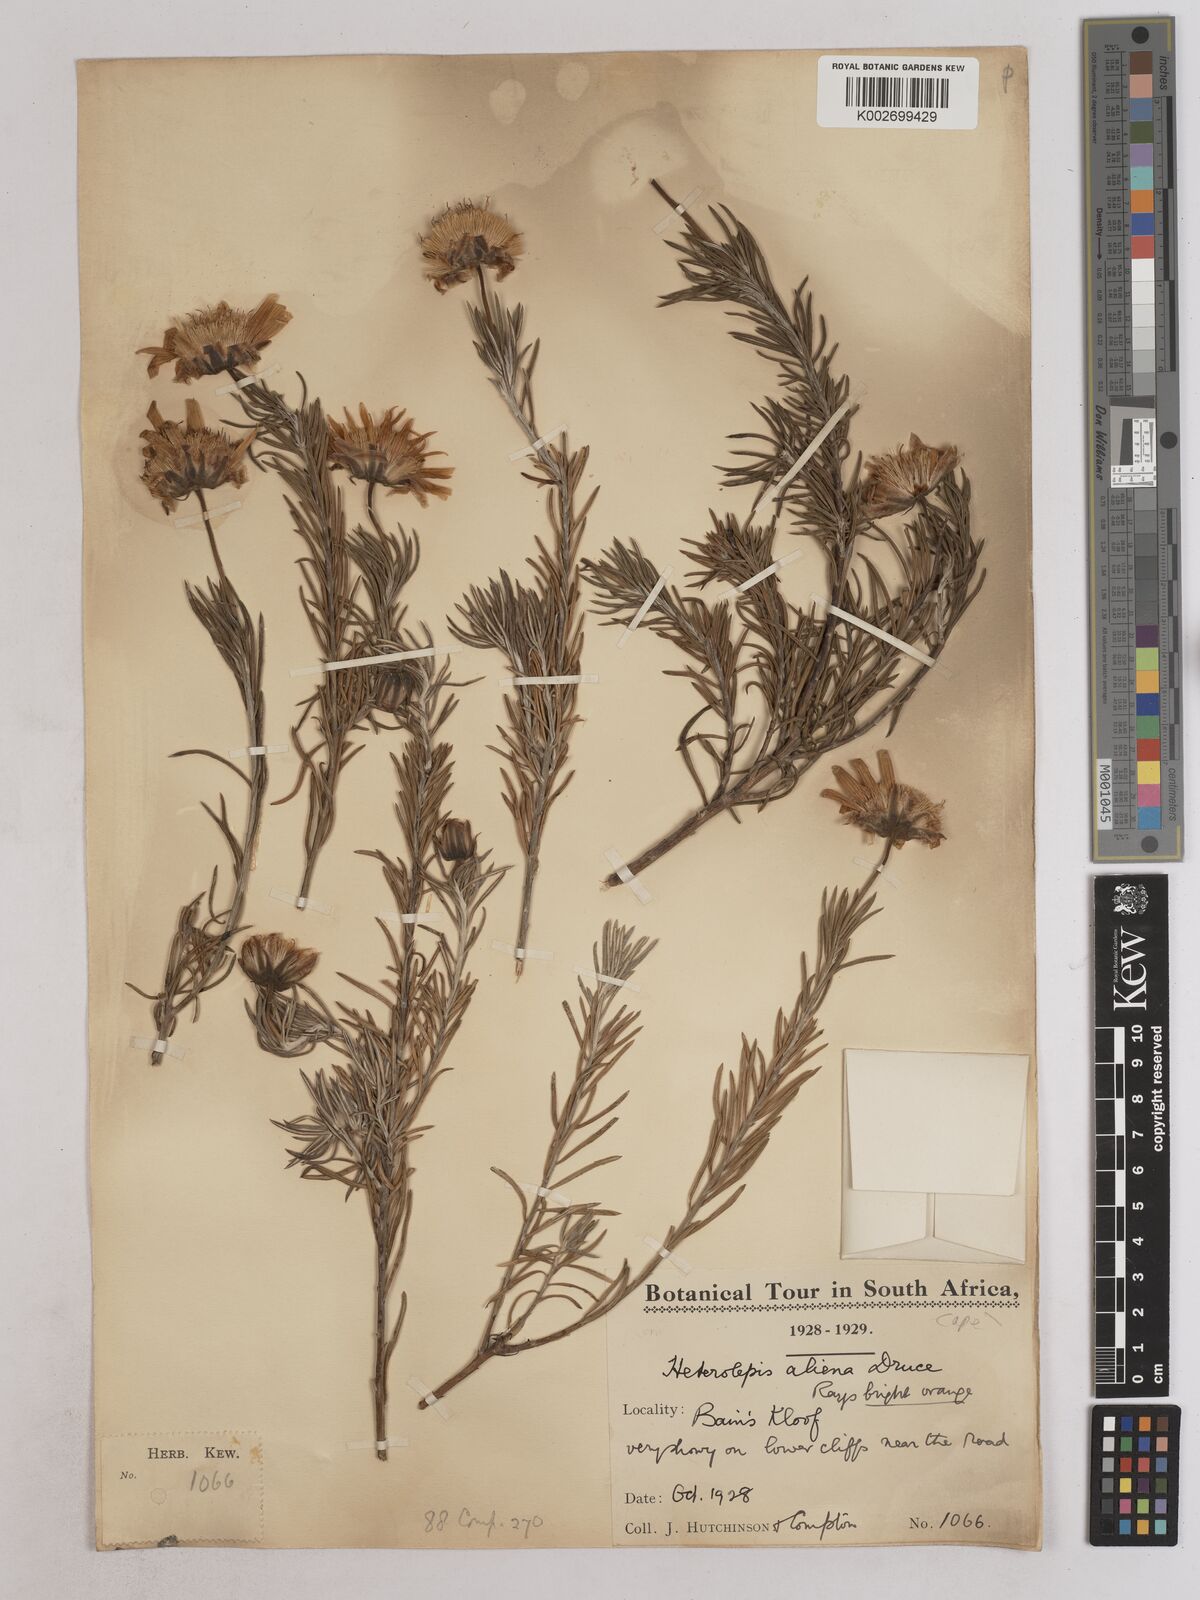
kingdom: Plantae
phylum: Tracheophyta
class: Magnoliopsida
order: Asterales
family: Asteraceae
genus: Heterolepis
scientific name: Heterolepis aliena
